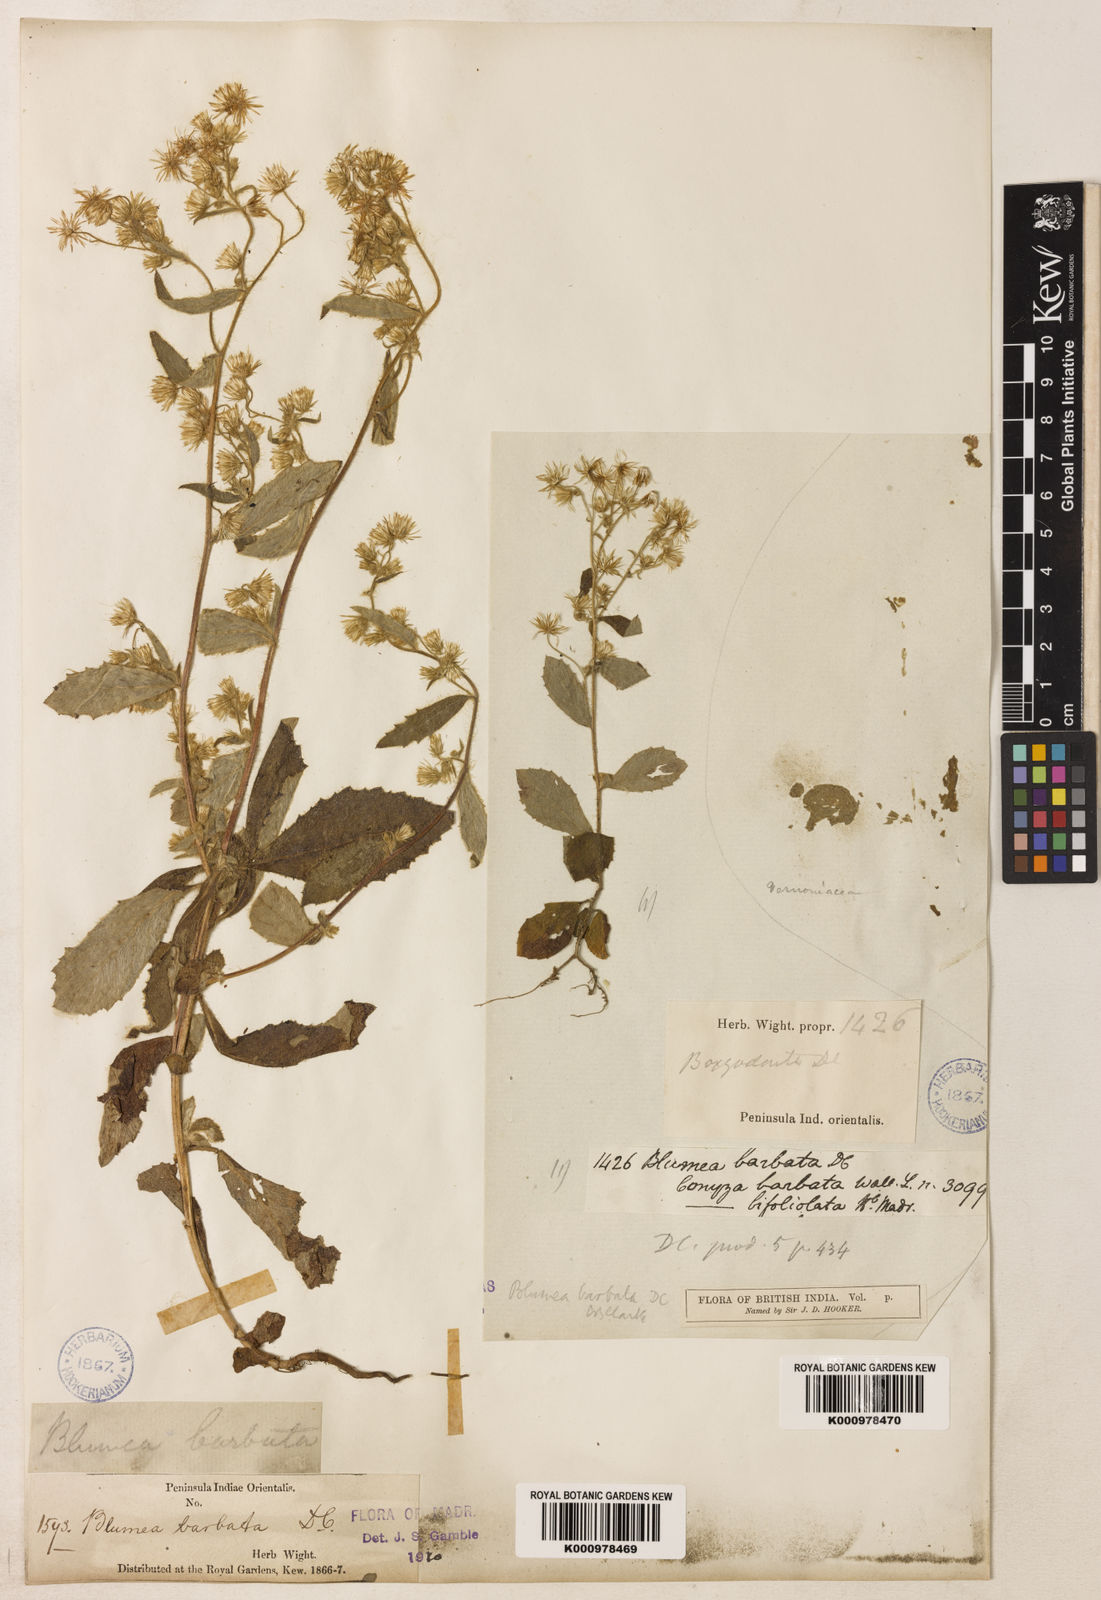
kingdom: Plantae
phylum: Tracheophyta
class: Magnoliopsida
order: Asterales
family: Asteraceae
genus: Blumea
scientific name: Blumea barbata
